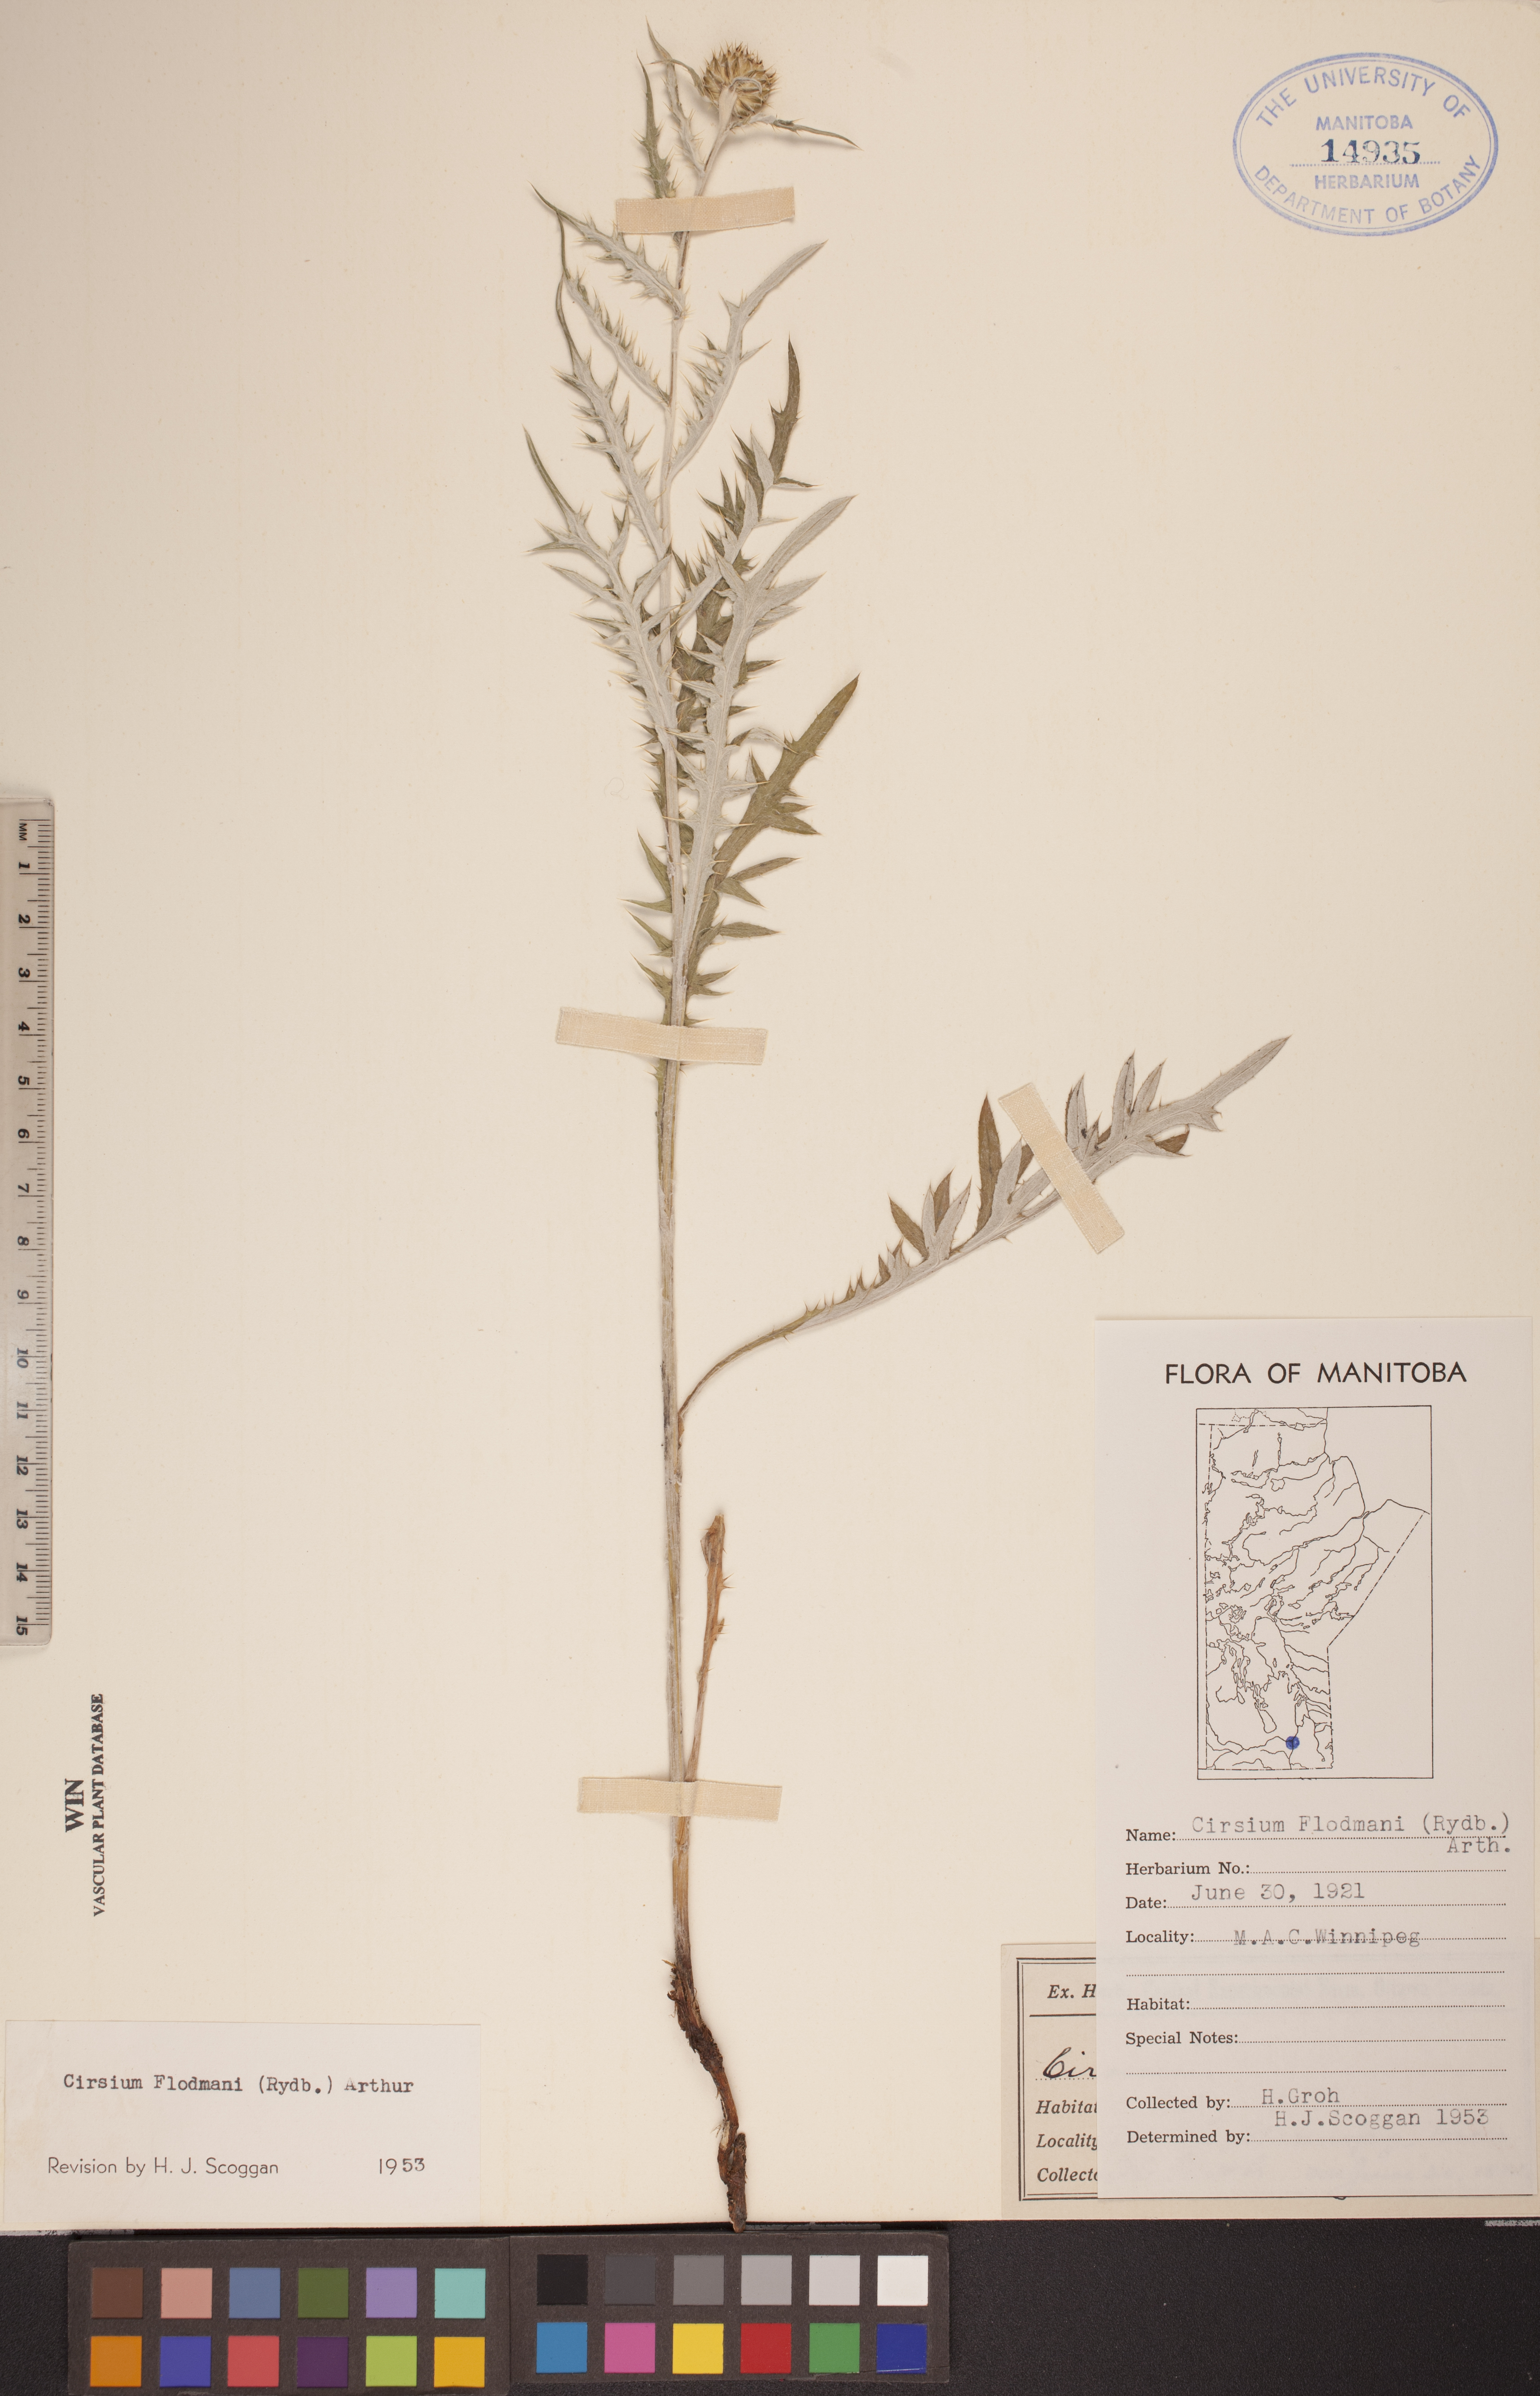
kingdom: Plantae
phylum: Tracheophyta
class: Magnoliopsida
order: Asterales
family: Asteraceae
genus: Cirsium
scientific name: Cirsium flodmanii
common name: Flodman's thistle
